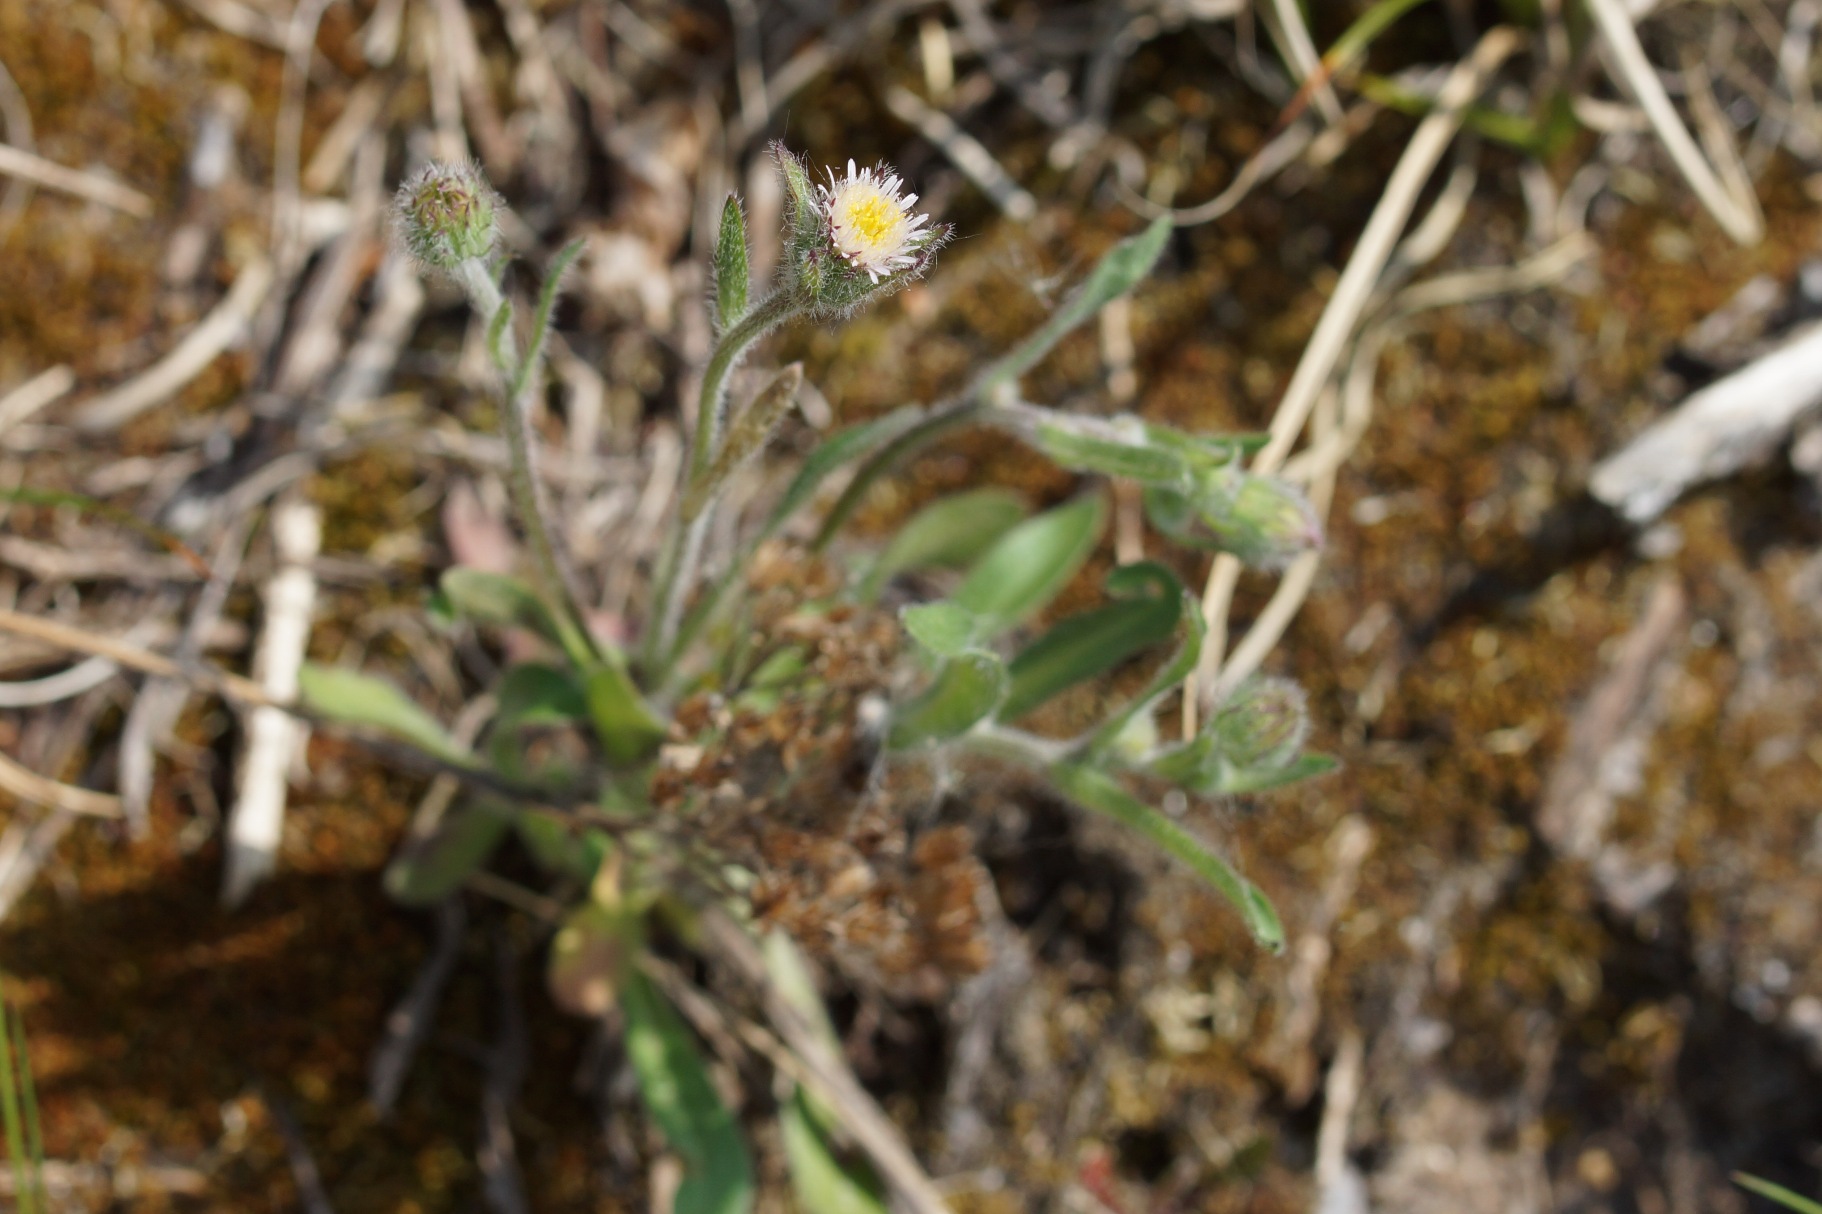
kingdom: Plantae
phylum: Tracheophyta
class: Magnoliopsida
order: Asterales
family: Asteraceae
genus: Erigeron
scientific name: Erigeron acris
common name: Bitter bakkestjerne
